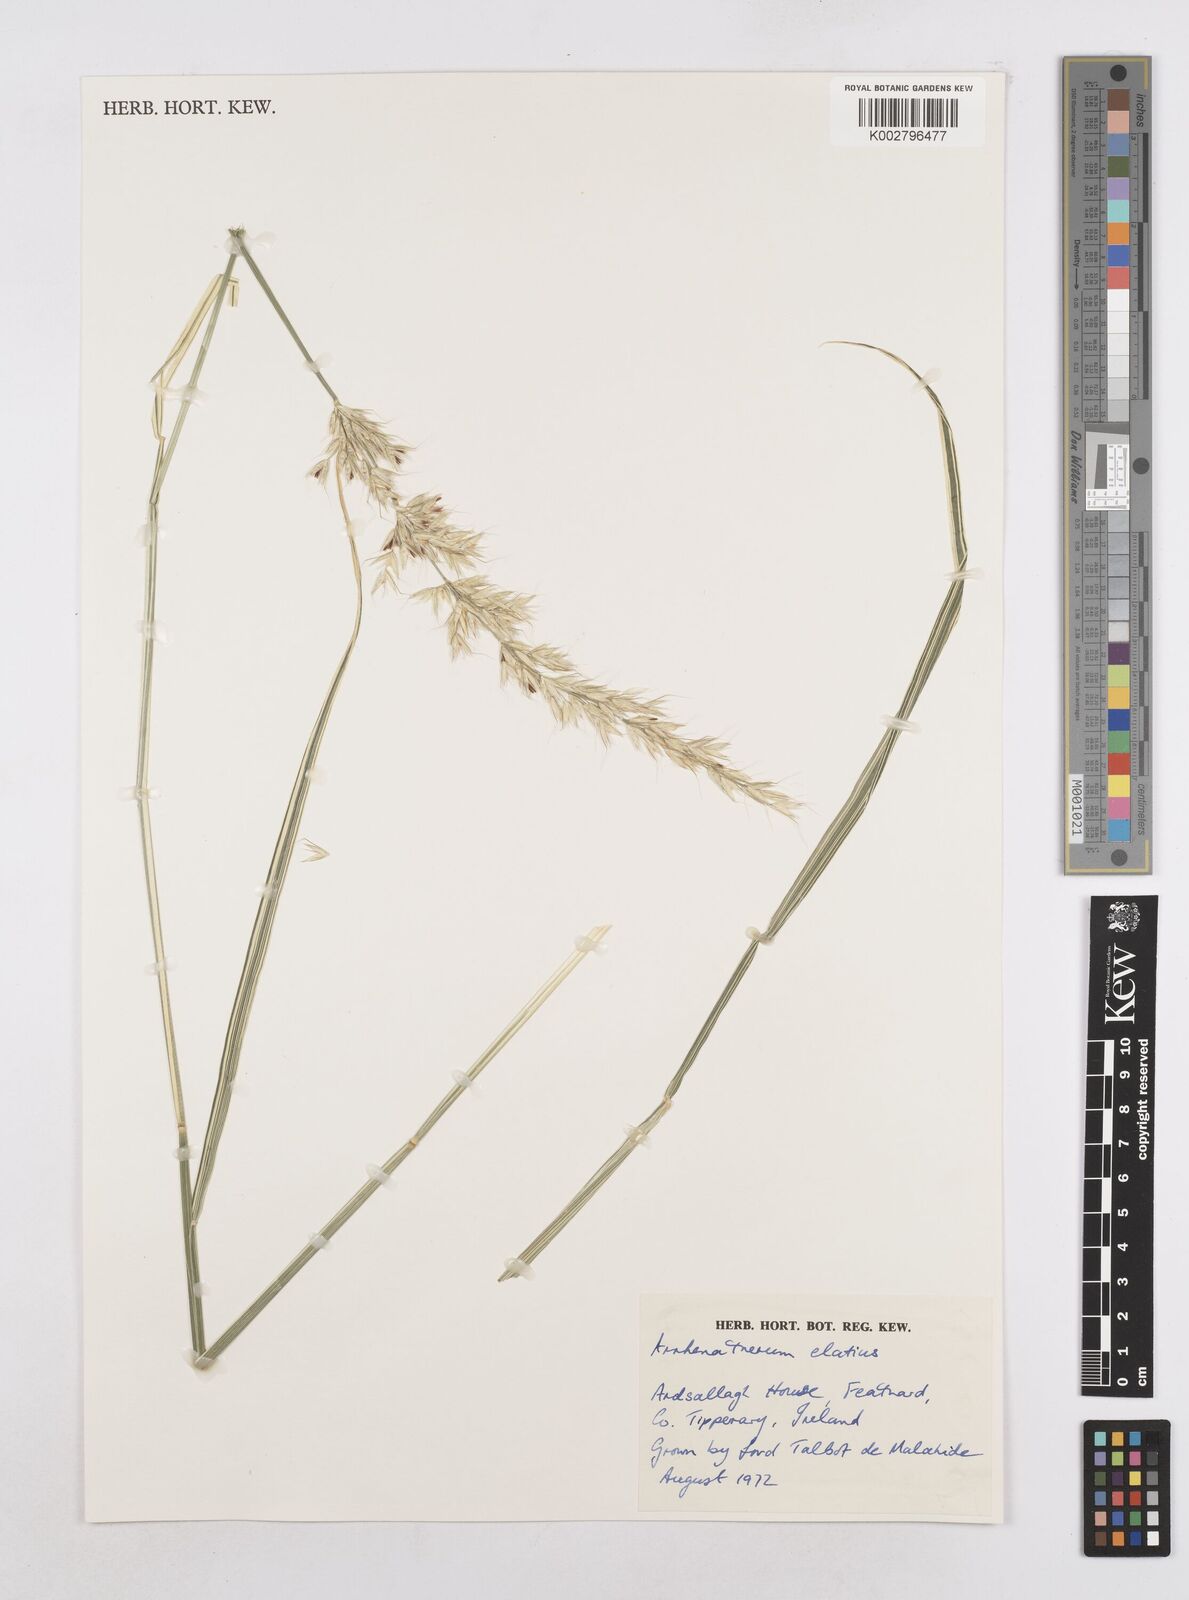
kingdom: Plantae
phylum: Tracheophyta
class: Liliopsida
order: Poales
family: Poaceae
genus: Arrhenatherum
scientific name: Arrhenatherum elatius
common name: Tall oatgrass
